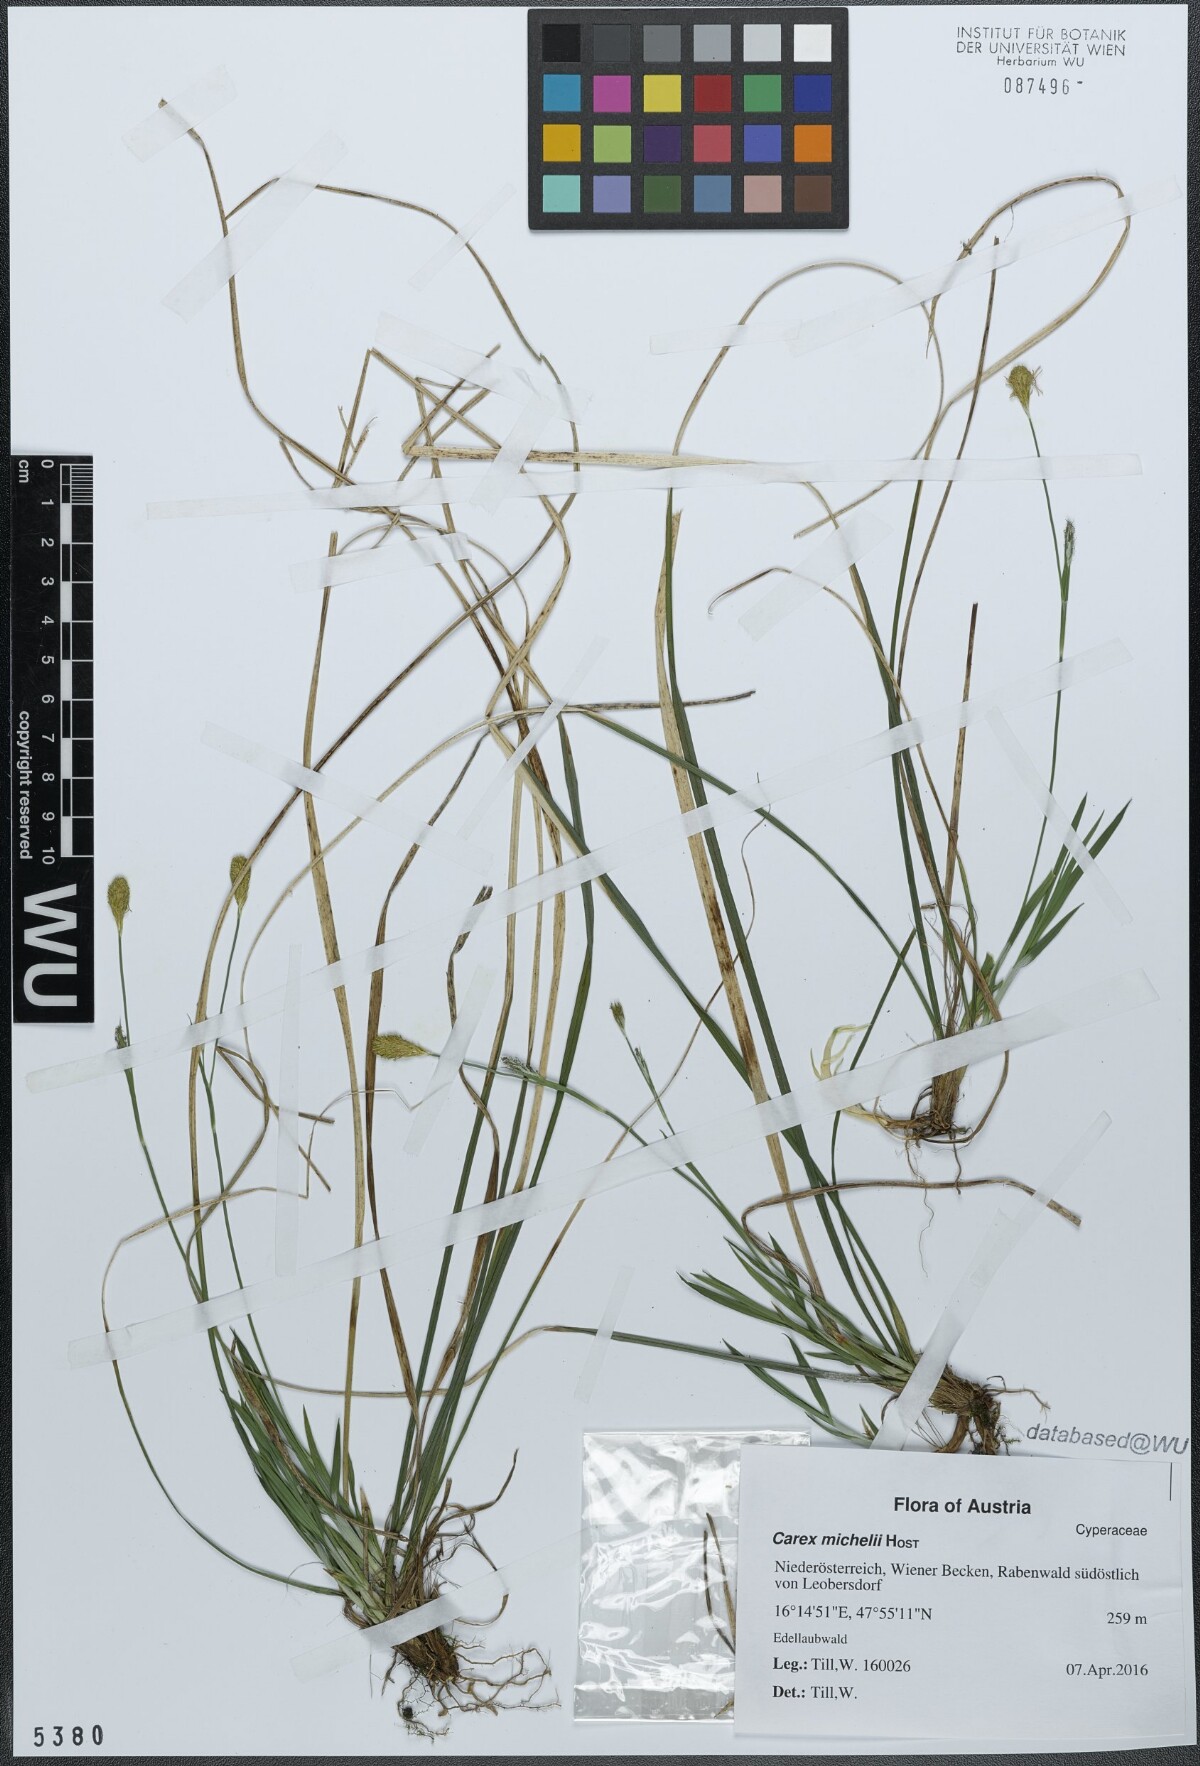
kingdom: Plantae
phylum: Tracheophyta
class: Liliopsida
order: Poales
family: Cyperaceae
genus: Carex
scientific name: Carex michelii
